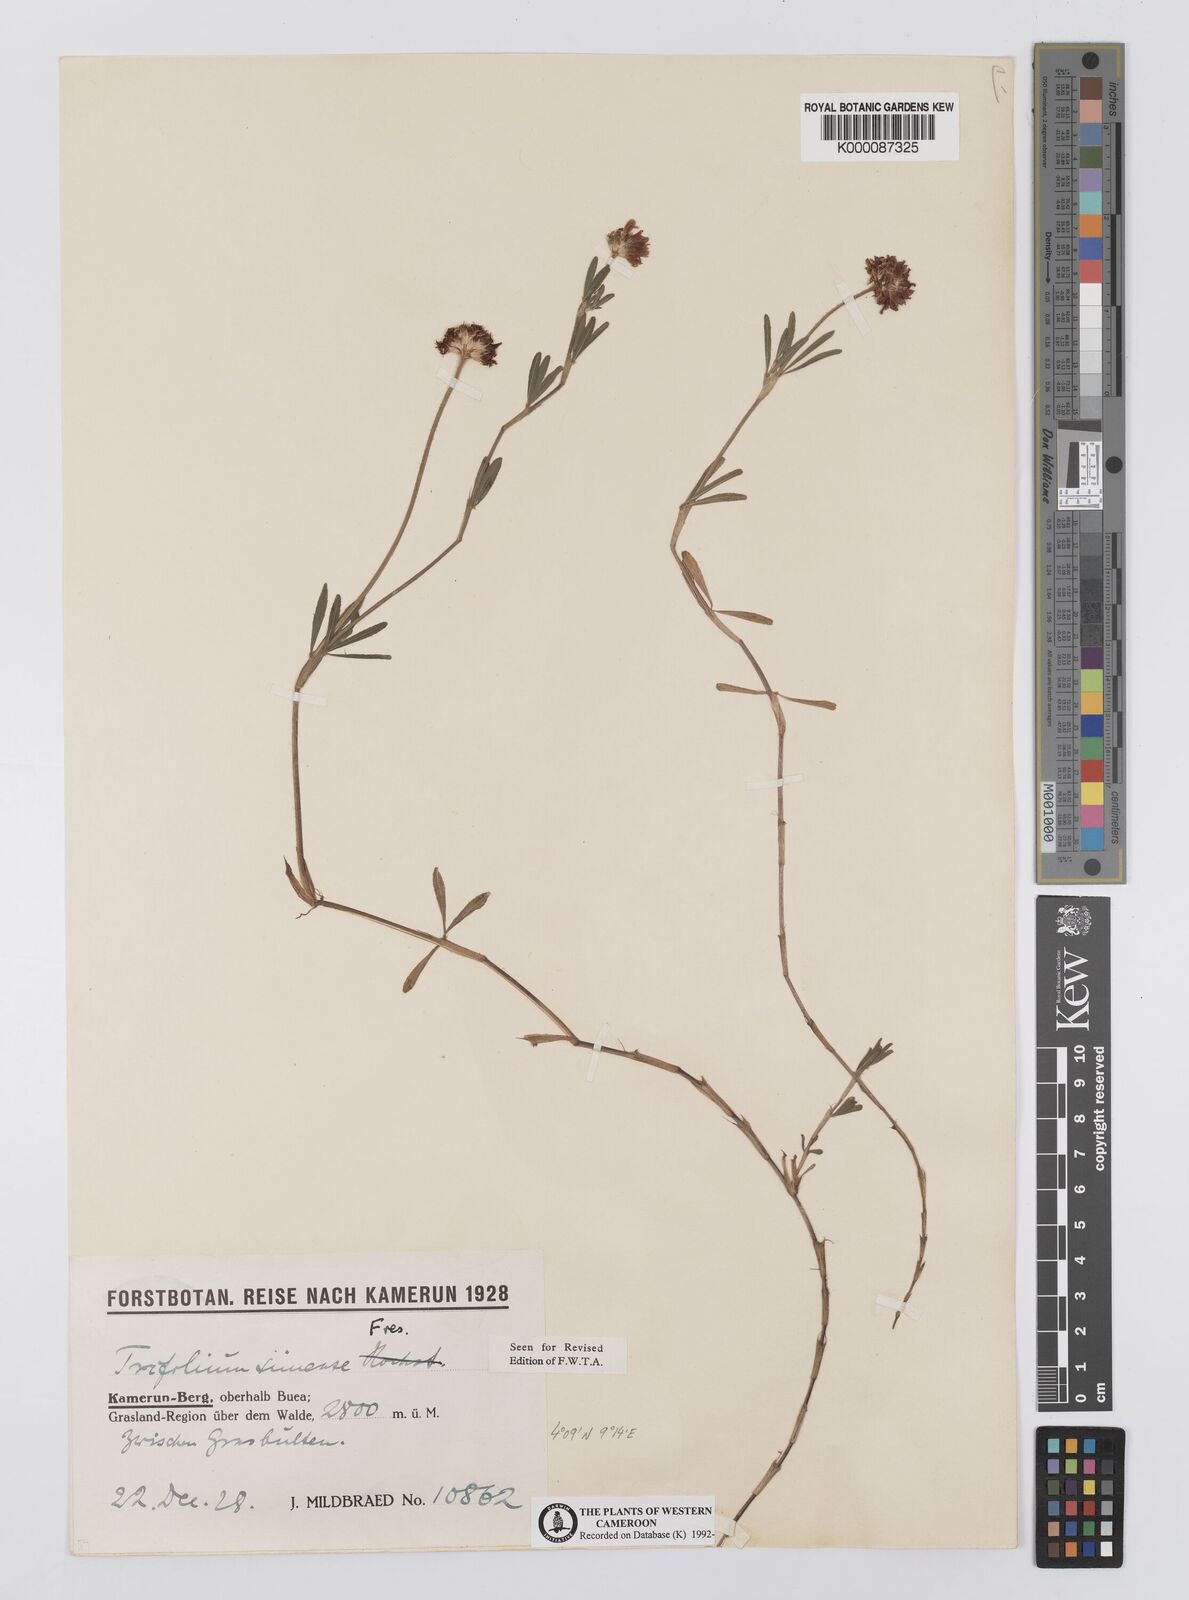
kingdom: Plantae
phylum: Tracheophyta
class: Magnoliopsida
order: Fabales
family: Fabaceae
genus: Trifolium
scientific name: Trifolium simense
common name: Simen clover
